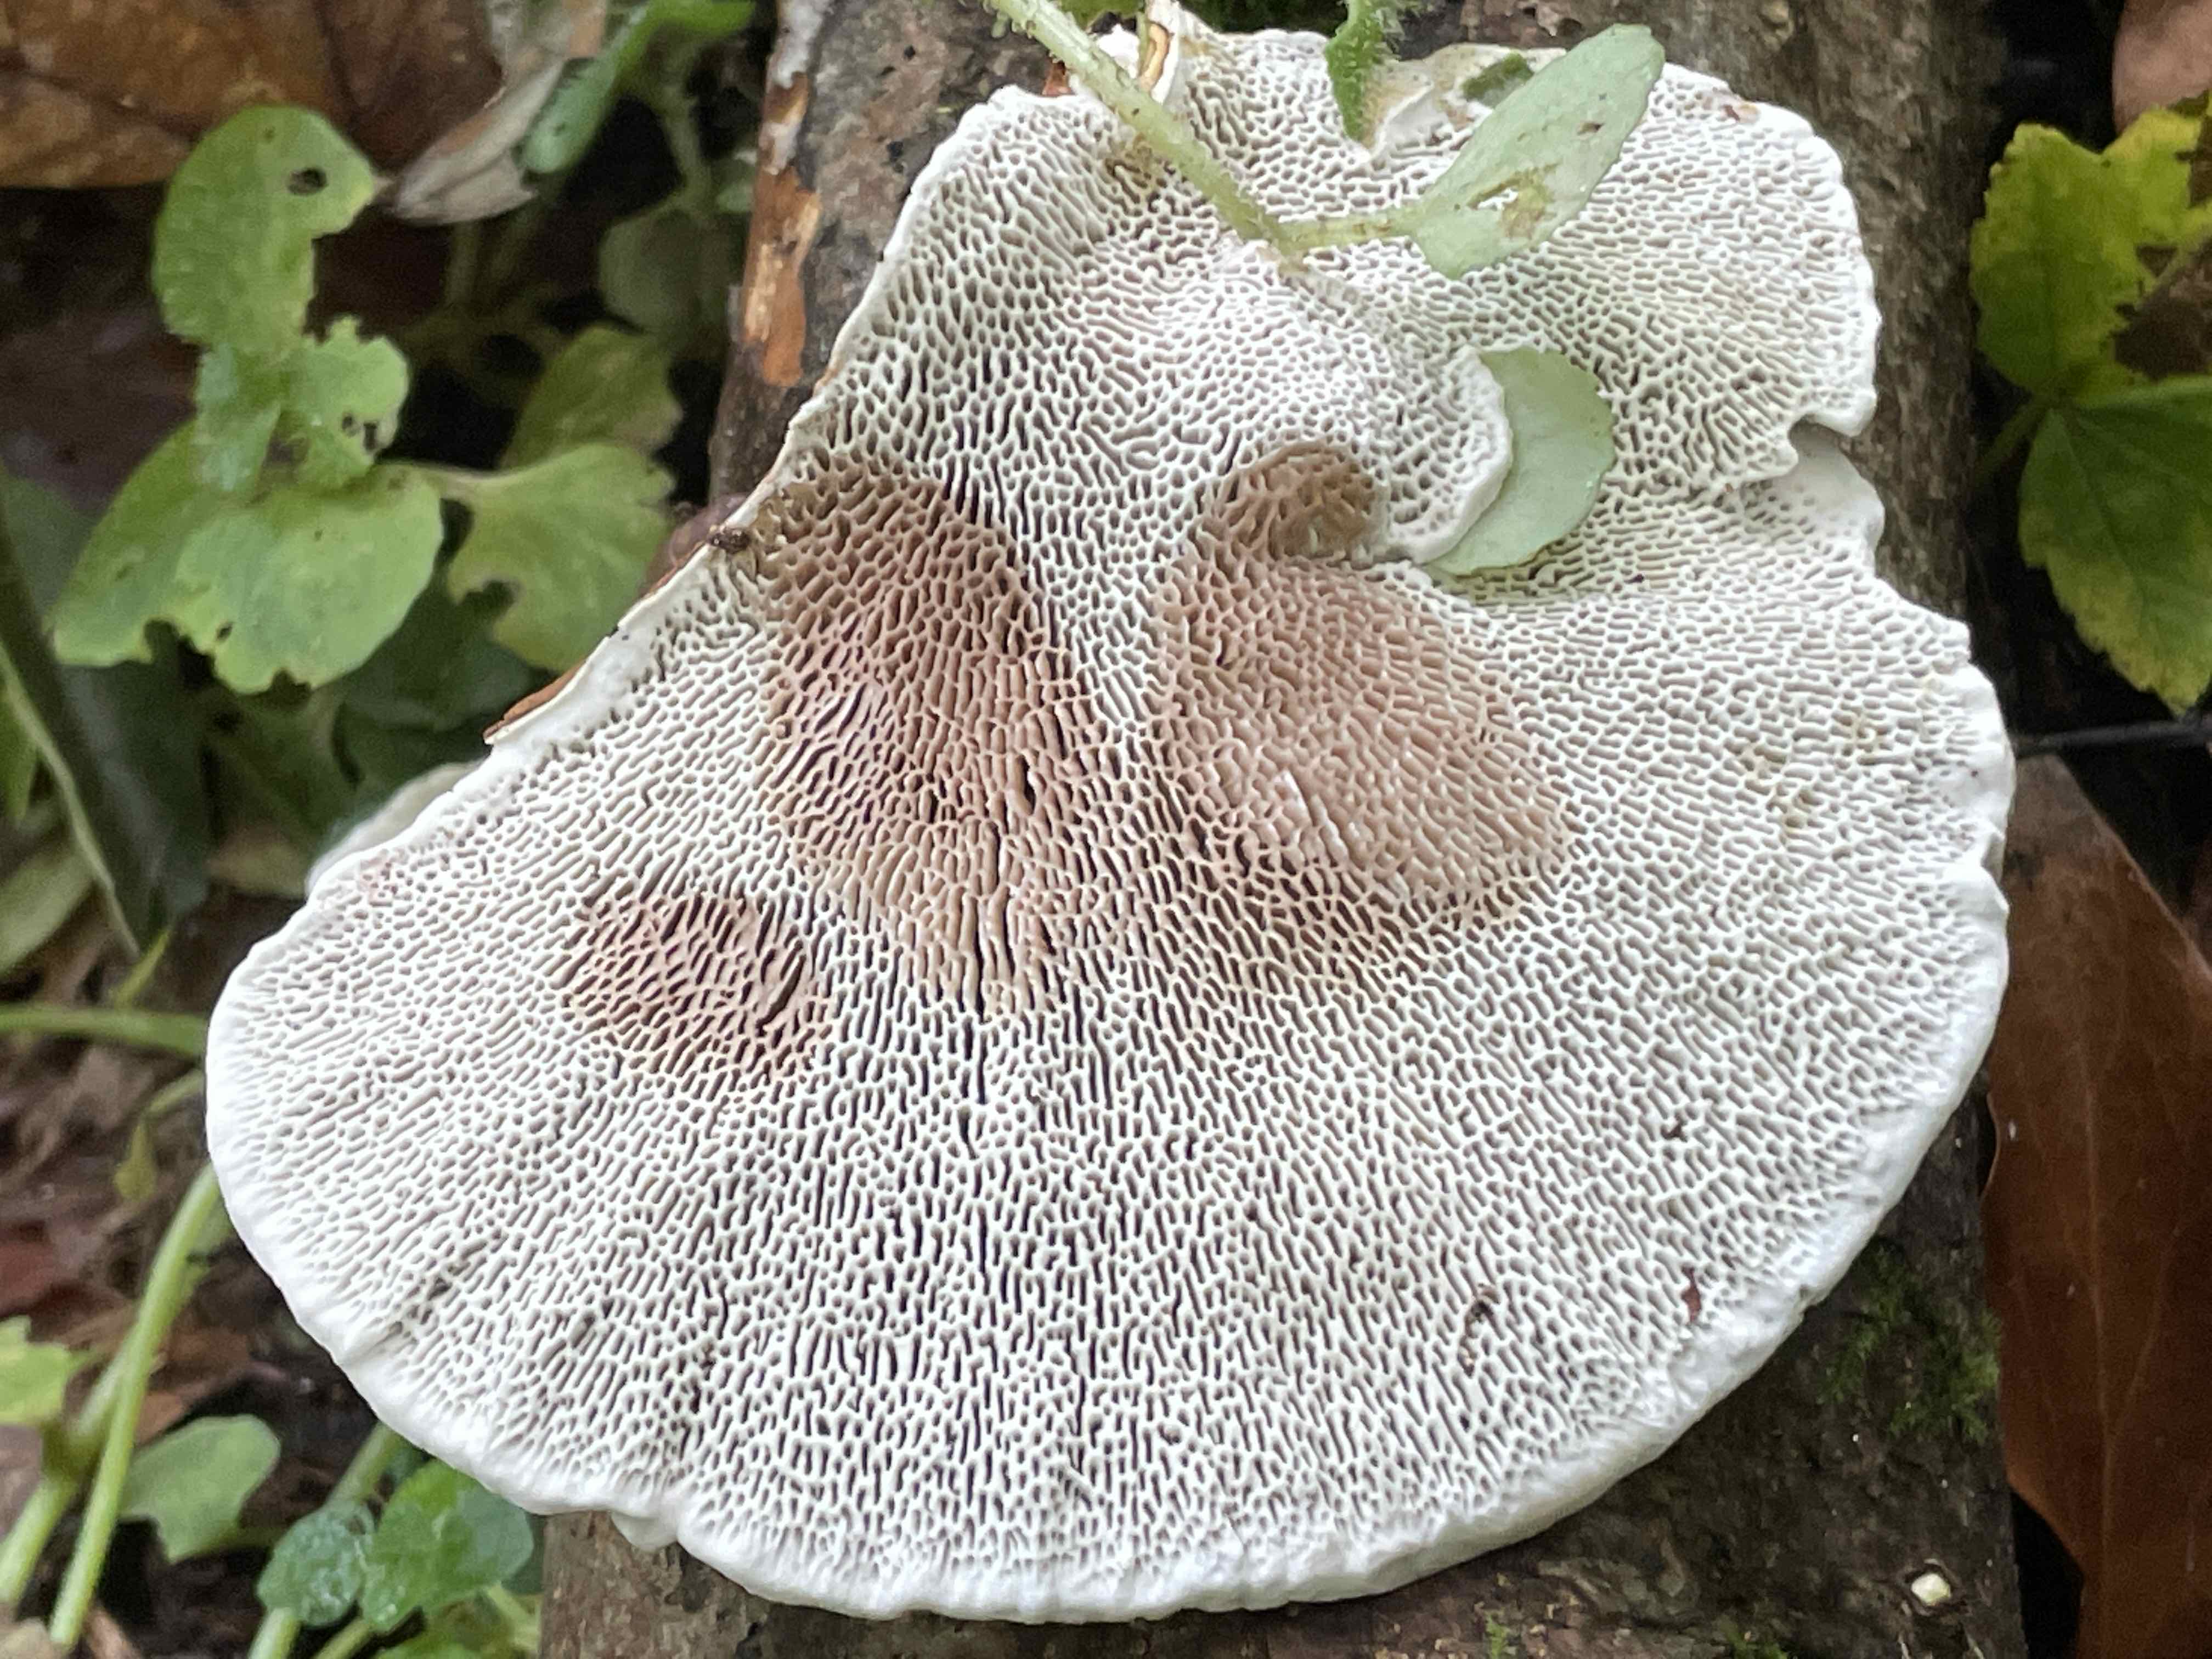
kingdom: Fungi
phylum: Basidiomycota
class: Agaricomycetes
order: Polyporales
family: Polyporaceae
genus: Daedaleopsis
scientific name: Daedaleopsis confragosa
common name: rødmende læderporesvamp
